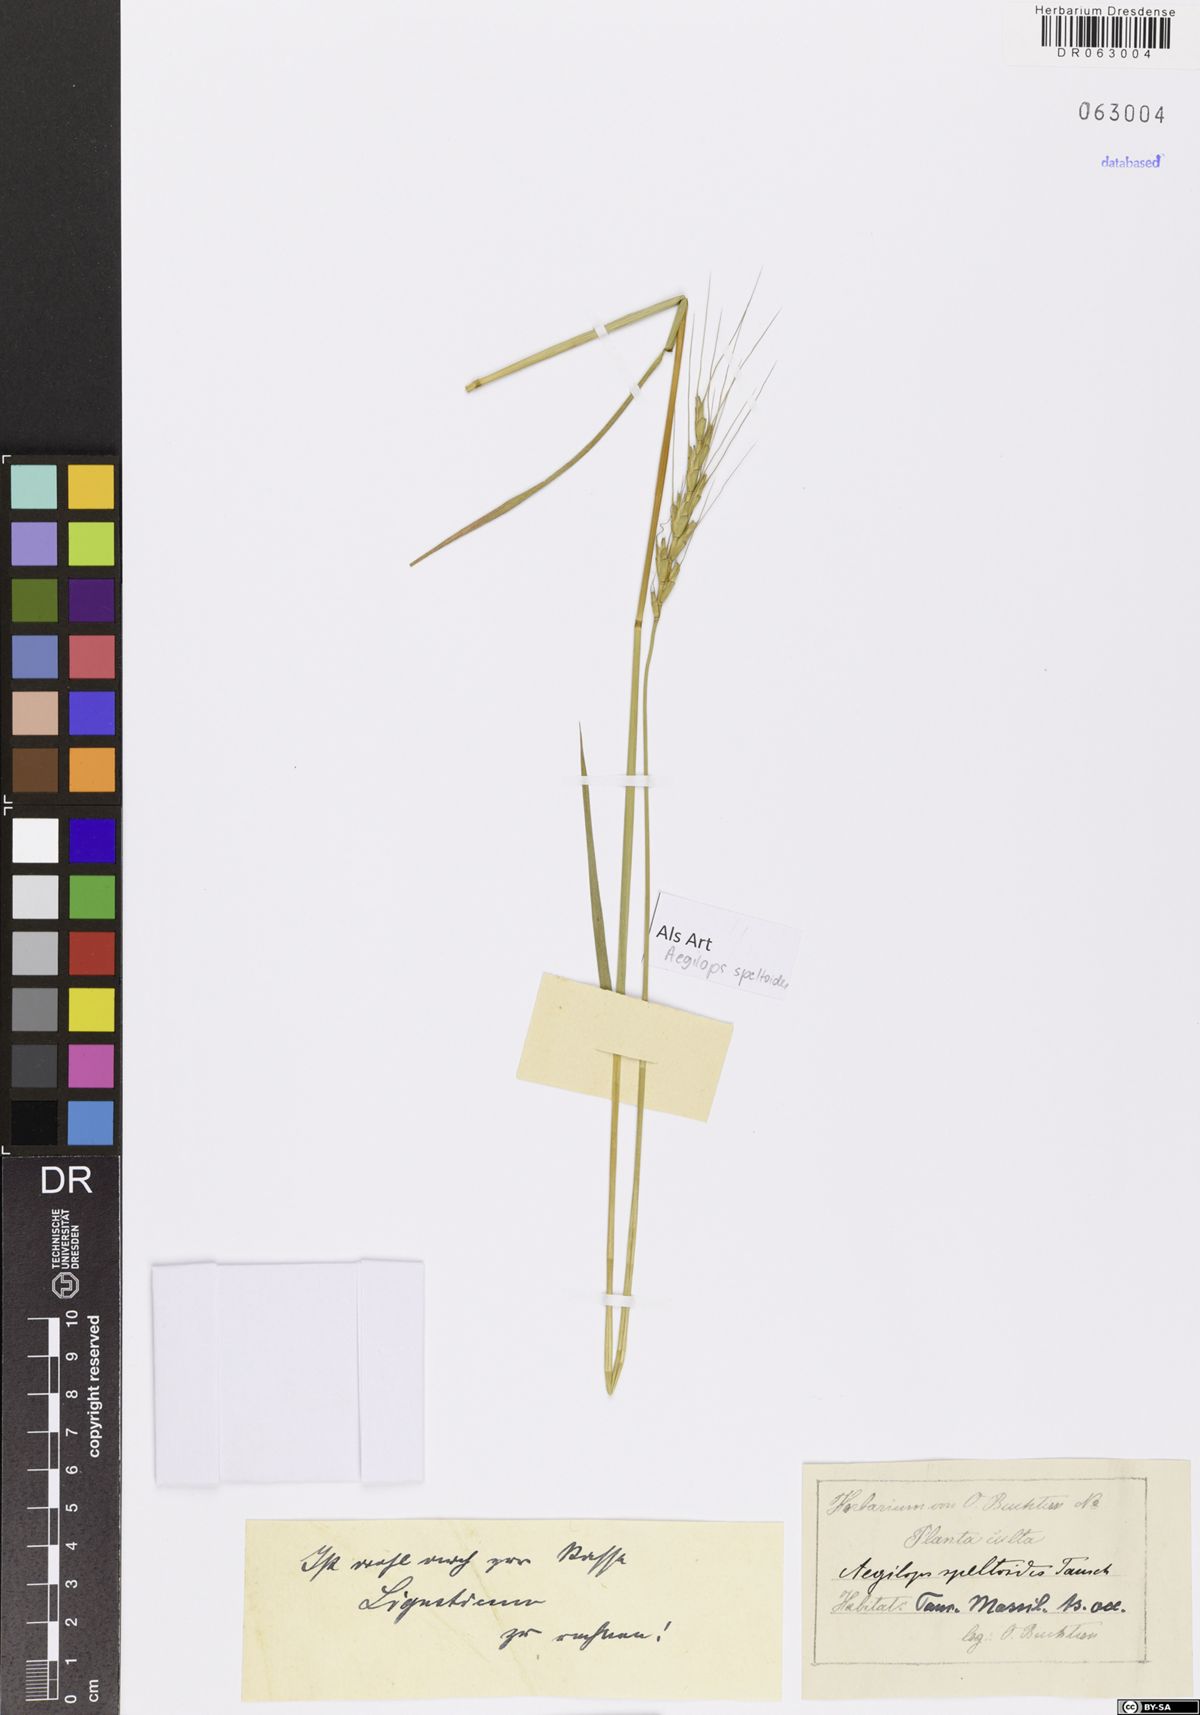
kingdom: Plantae
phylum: Tracheophyta
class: Liliopsida
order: Poales
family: Poaceae
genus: Aegilops
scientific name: Aegilops speltoides
